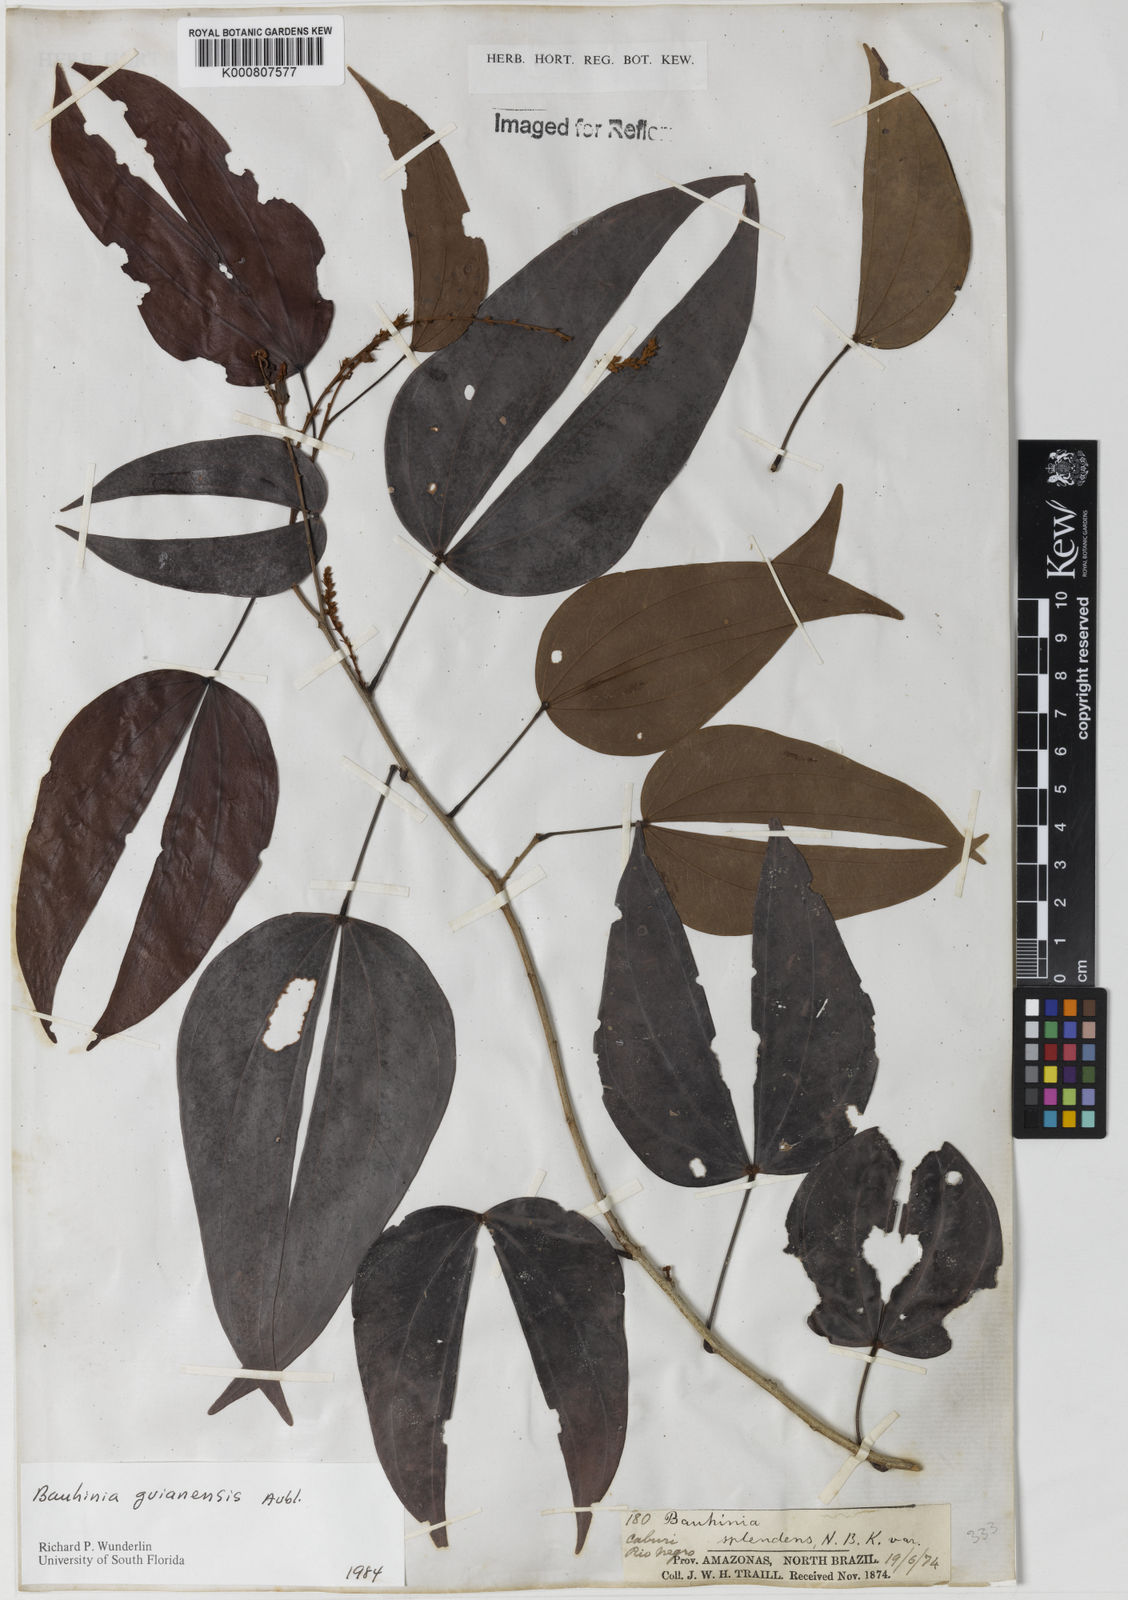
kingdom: Plantae
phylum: Tracheophyta
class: Magnoliopsida
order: Fabales
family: Fabaceae
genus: Schnella
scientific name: Schnella guianensis
